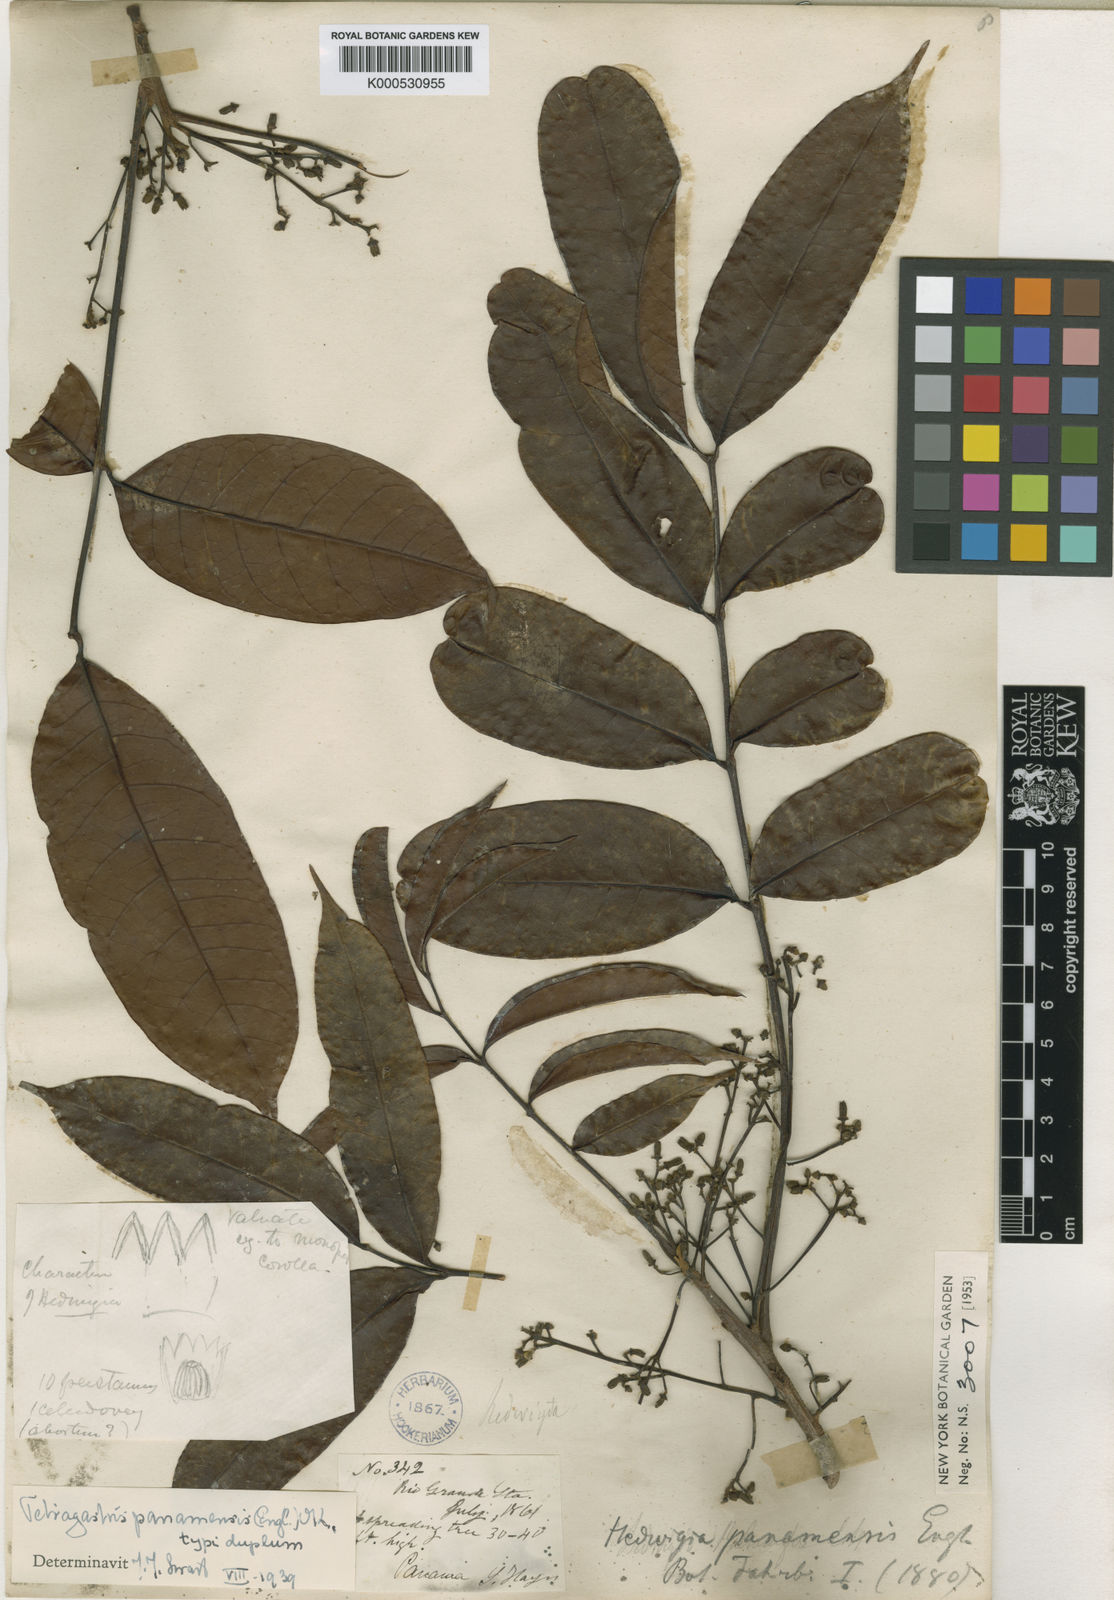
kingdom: Plantae
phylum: Tracheophyta
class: Magnoliopsida
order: Sapindales
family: Burseraceae
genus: Tetragastris
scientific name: Tetragastris panamensis
